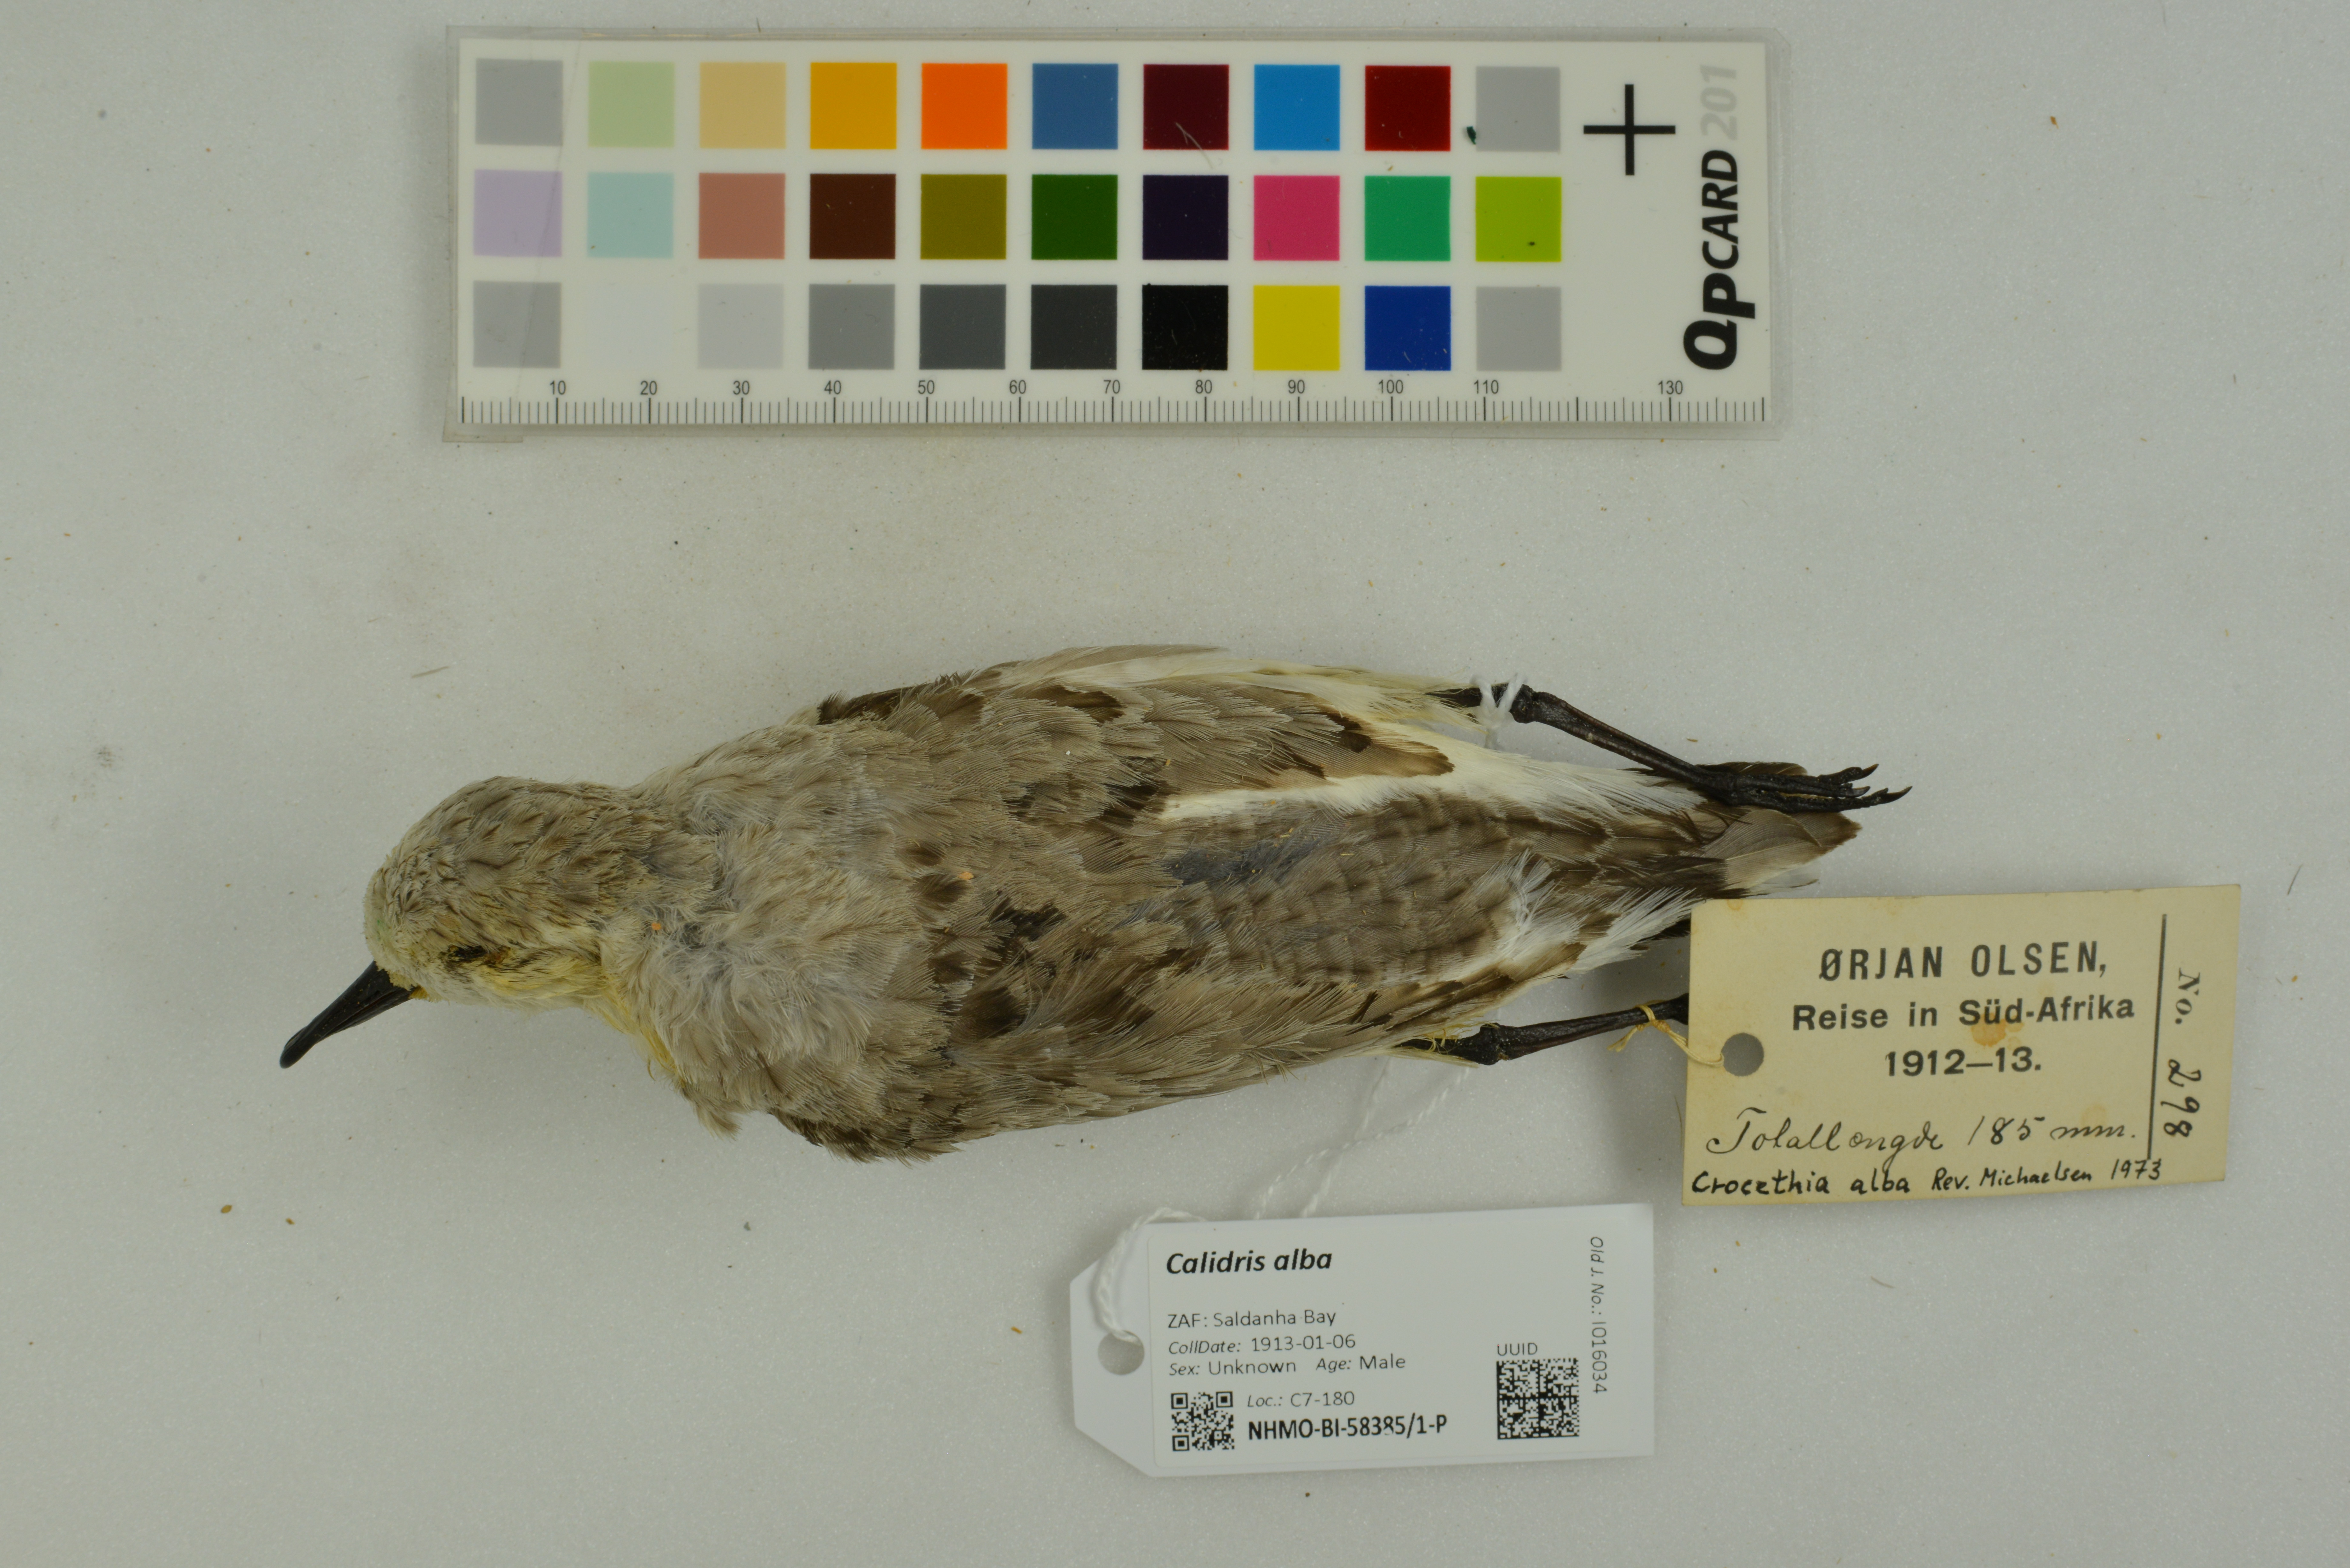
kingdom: Animalia
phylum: Chordata
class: Aves
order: Charadriiformes
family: Scolopacidae
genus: Calidris
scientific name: Calidris alba
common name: Sanderling
